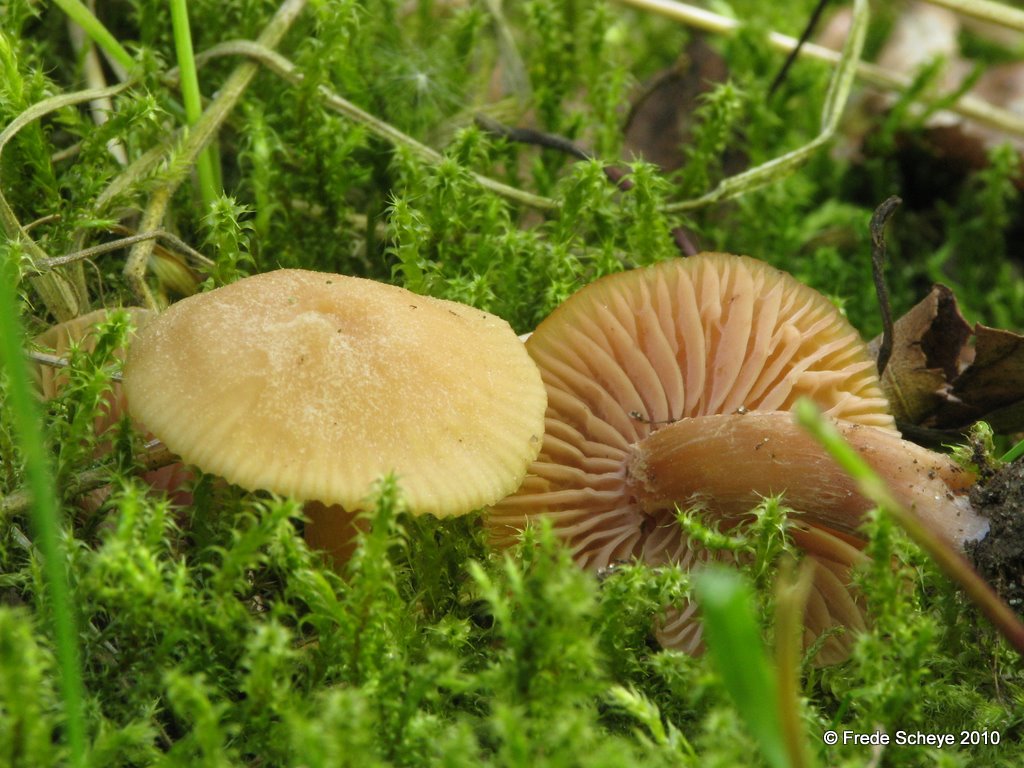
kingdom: Fungi
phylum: Basidiomycota
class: Agaricomycetes
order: Agaricales
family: Hydnangiaceae
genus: Laccaria
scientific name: Laccaria laccata
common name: rød ametysthat
